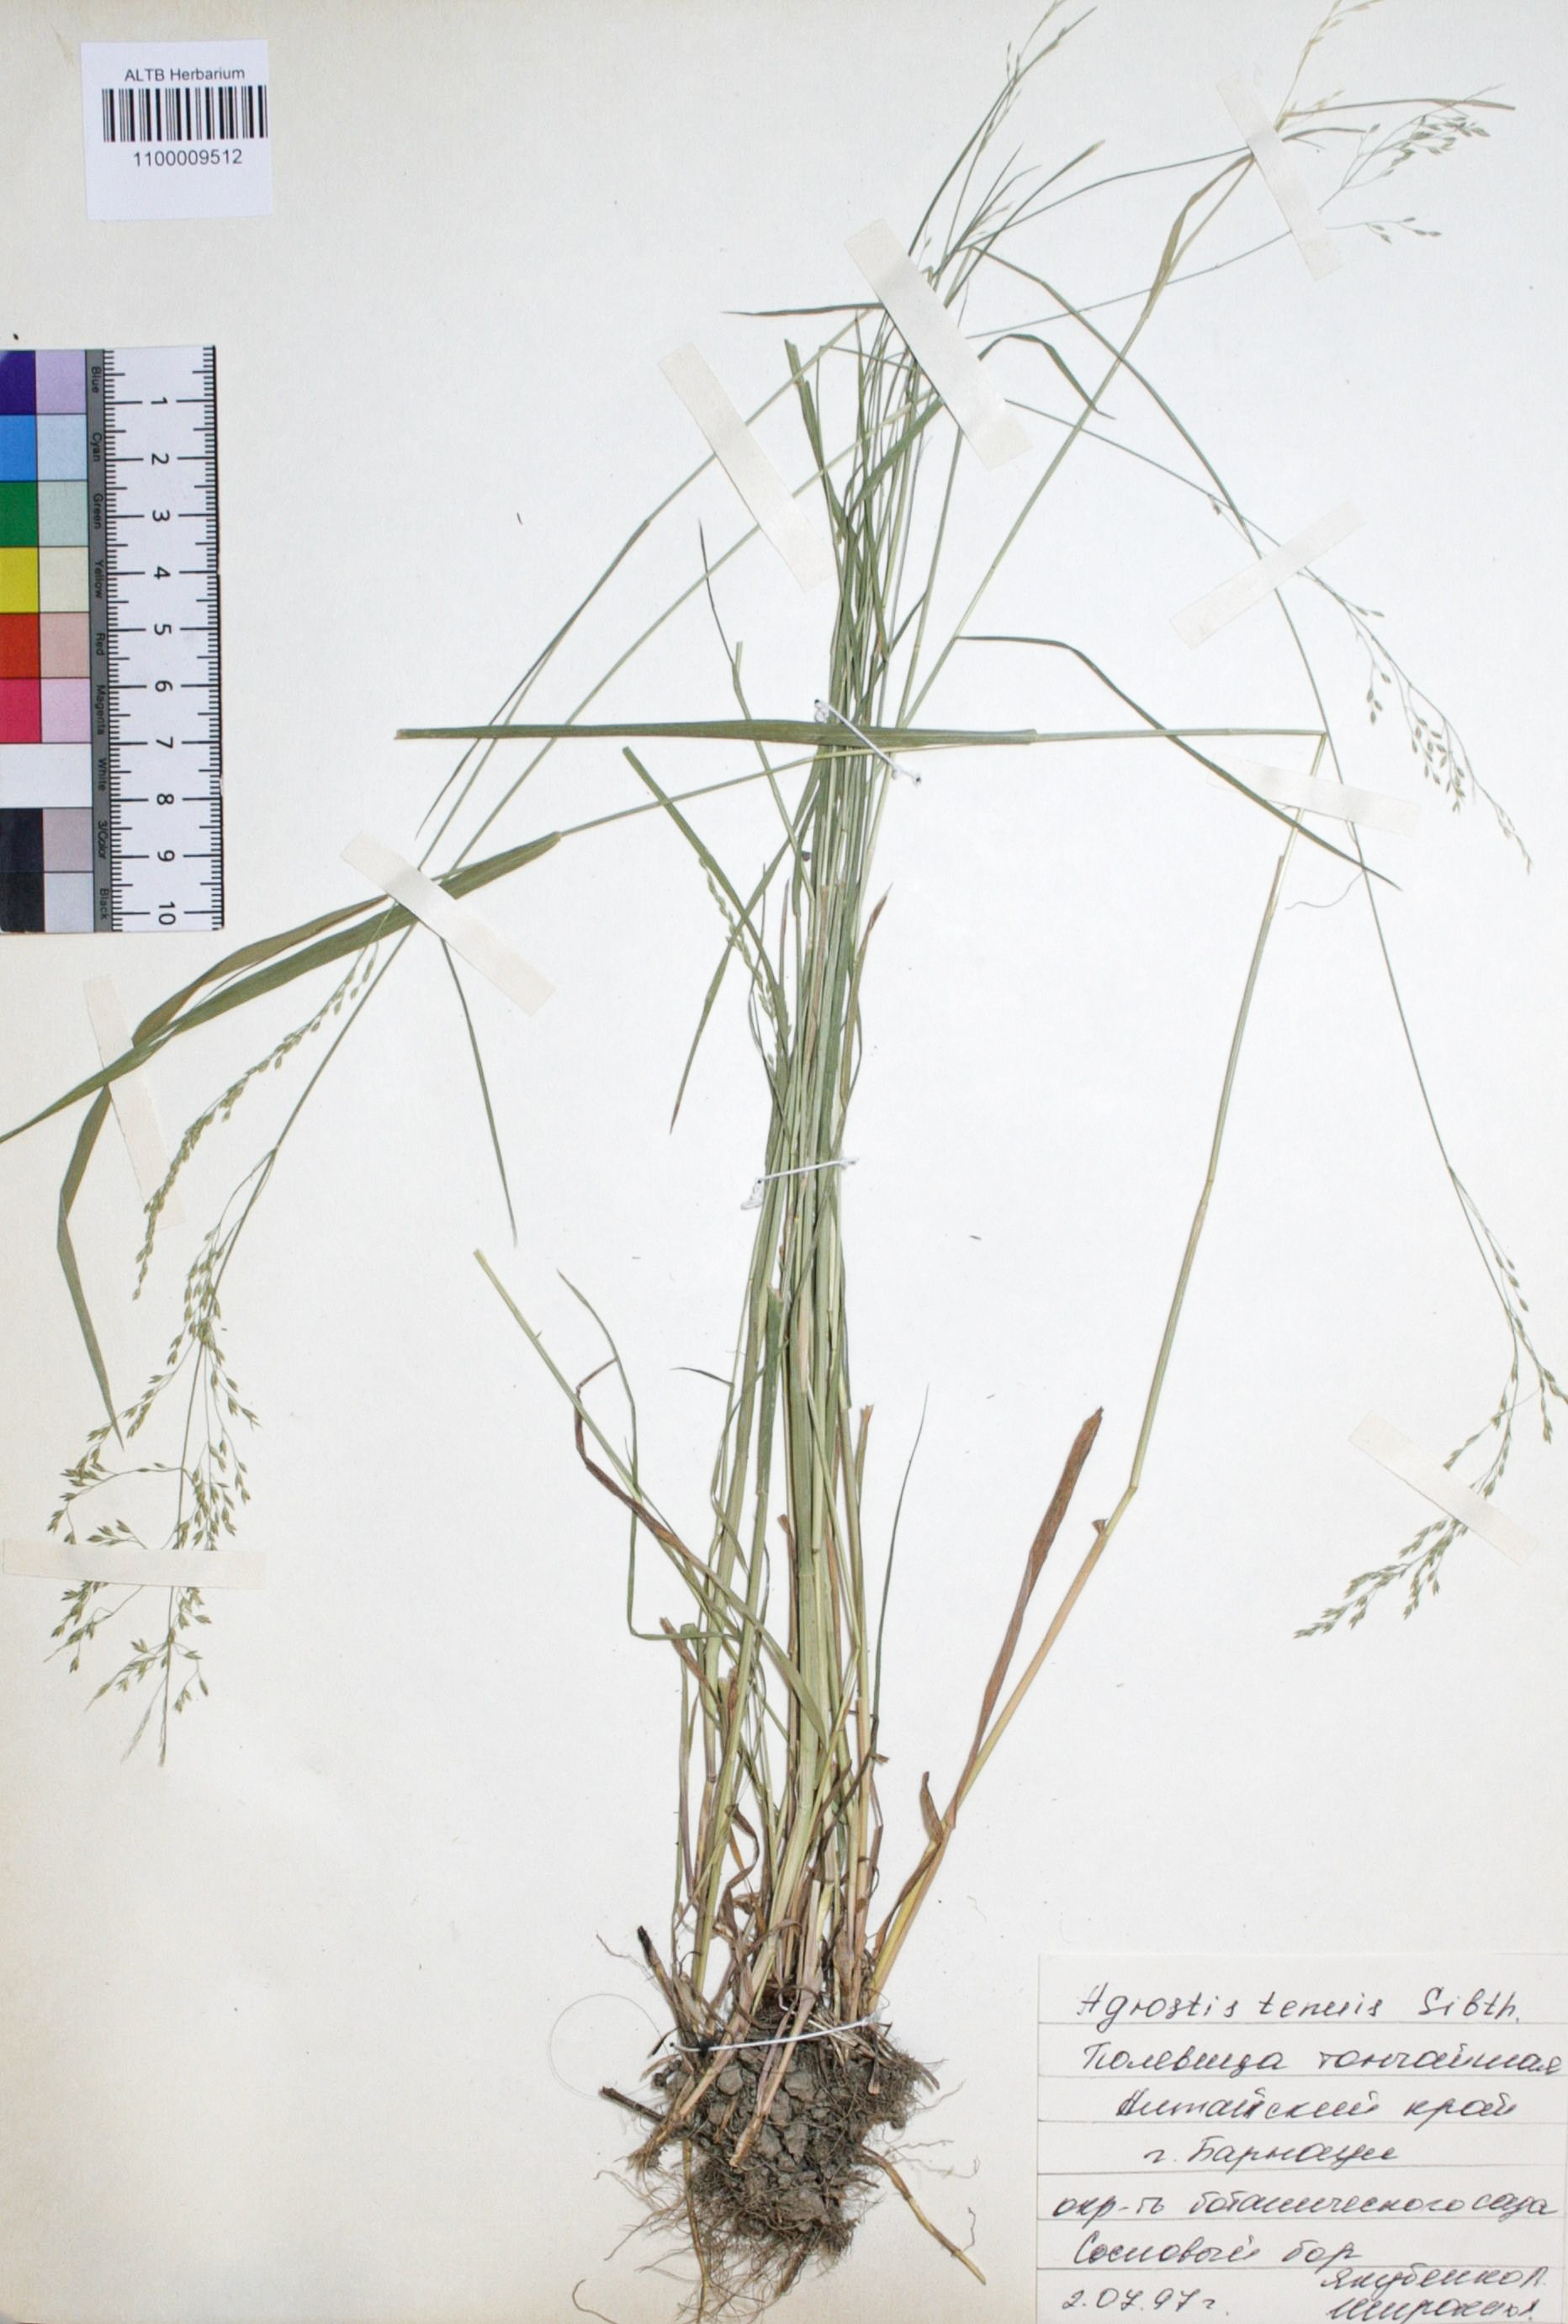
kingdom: Plantae
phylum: Tracheophyta
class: Liliopsida
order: Poales
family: Poaceae
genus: Agrostis
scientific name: Agrostis capillaris
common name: Colonial bentgrass
